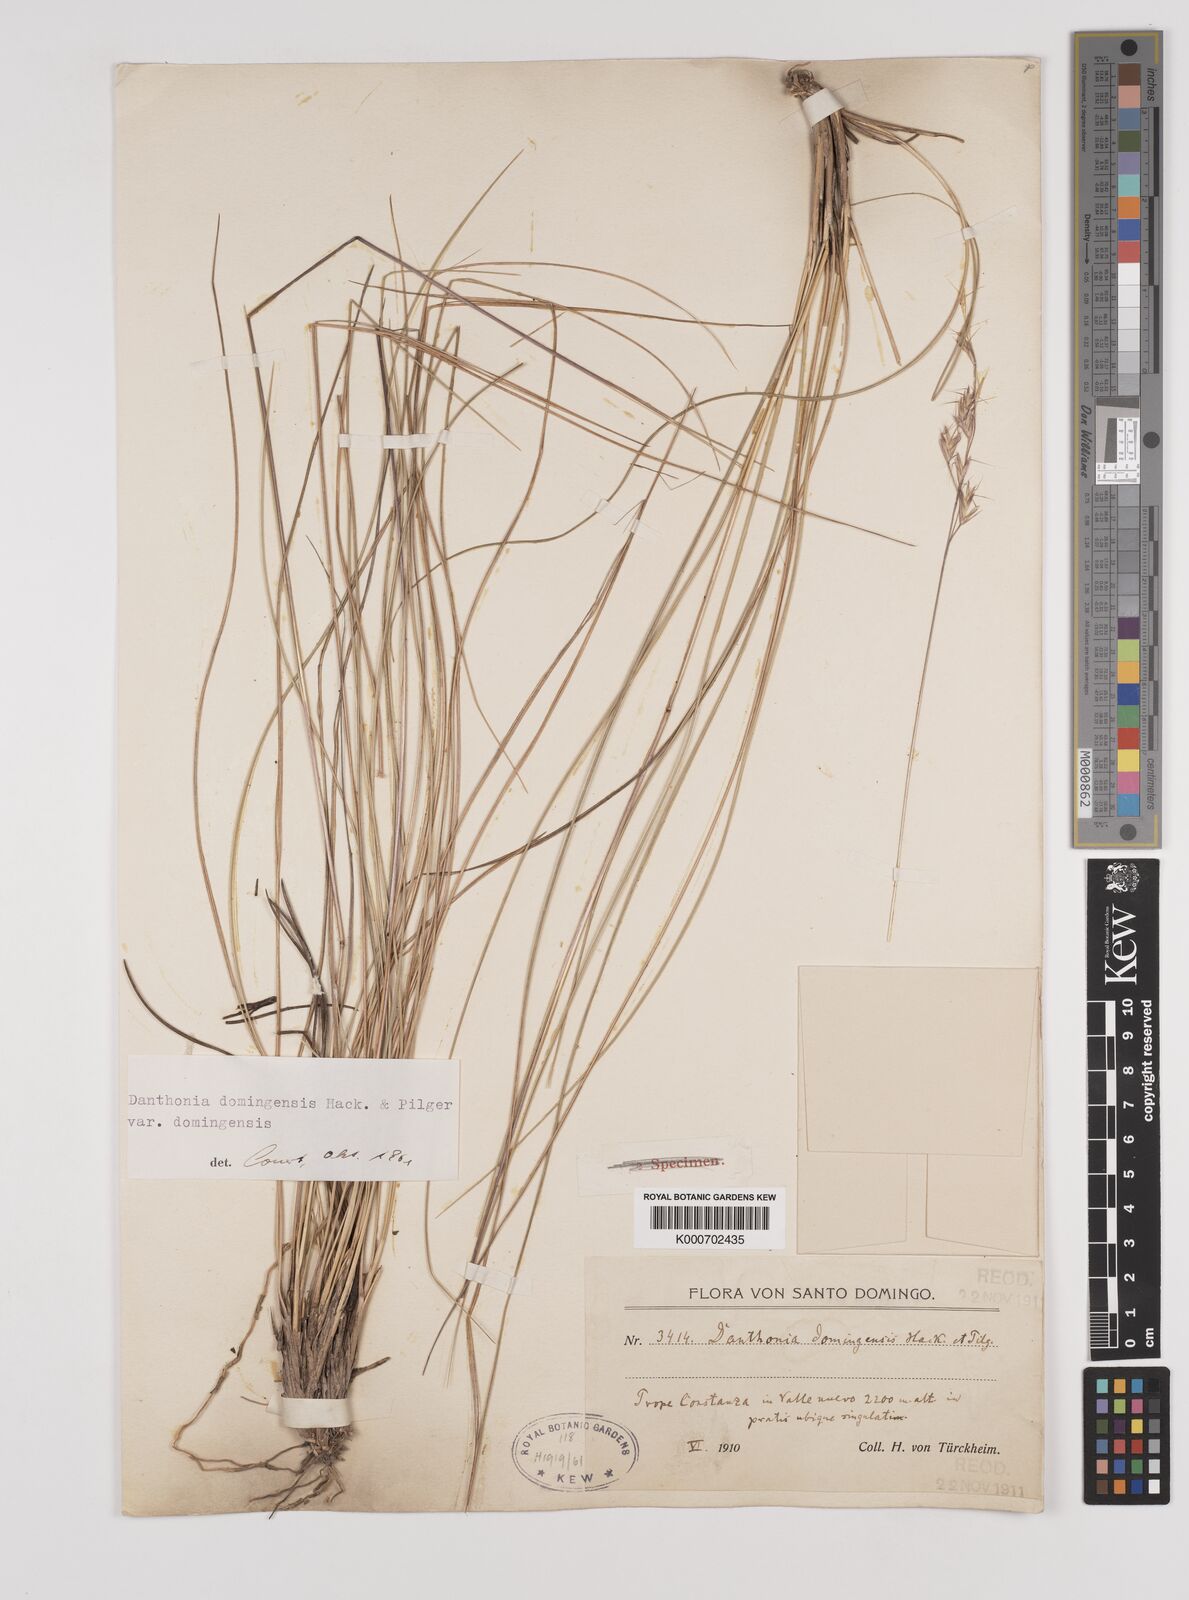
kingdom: Plantae
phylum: Tracheophyta
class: Liliopsida
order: Poales
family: Poaceae
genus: Danthonia
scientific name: Danthonia domingensis
